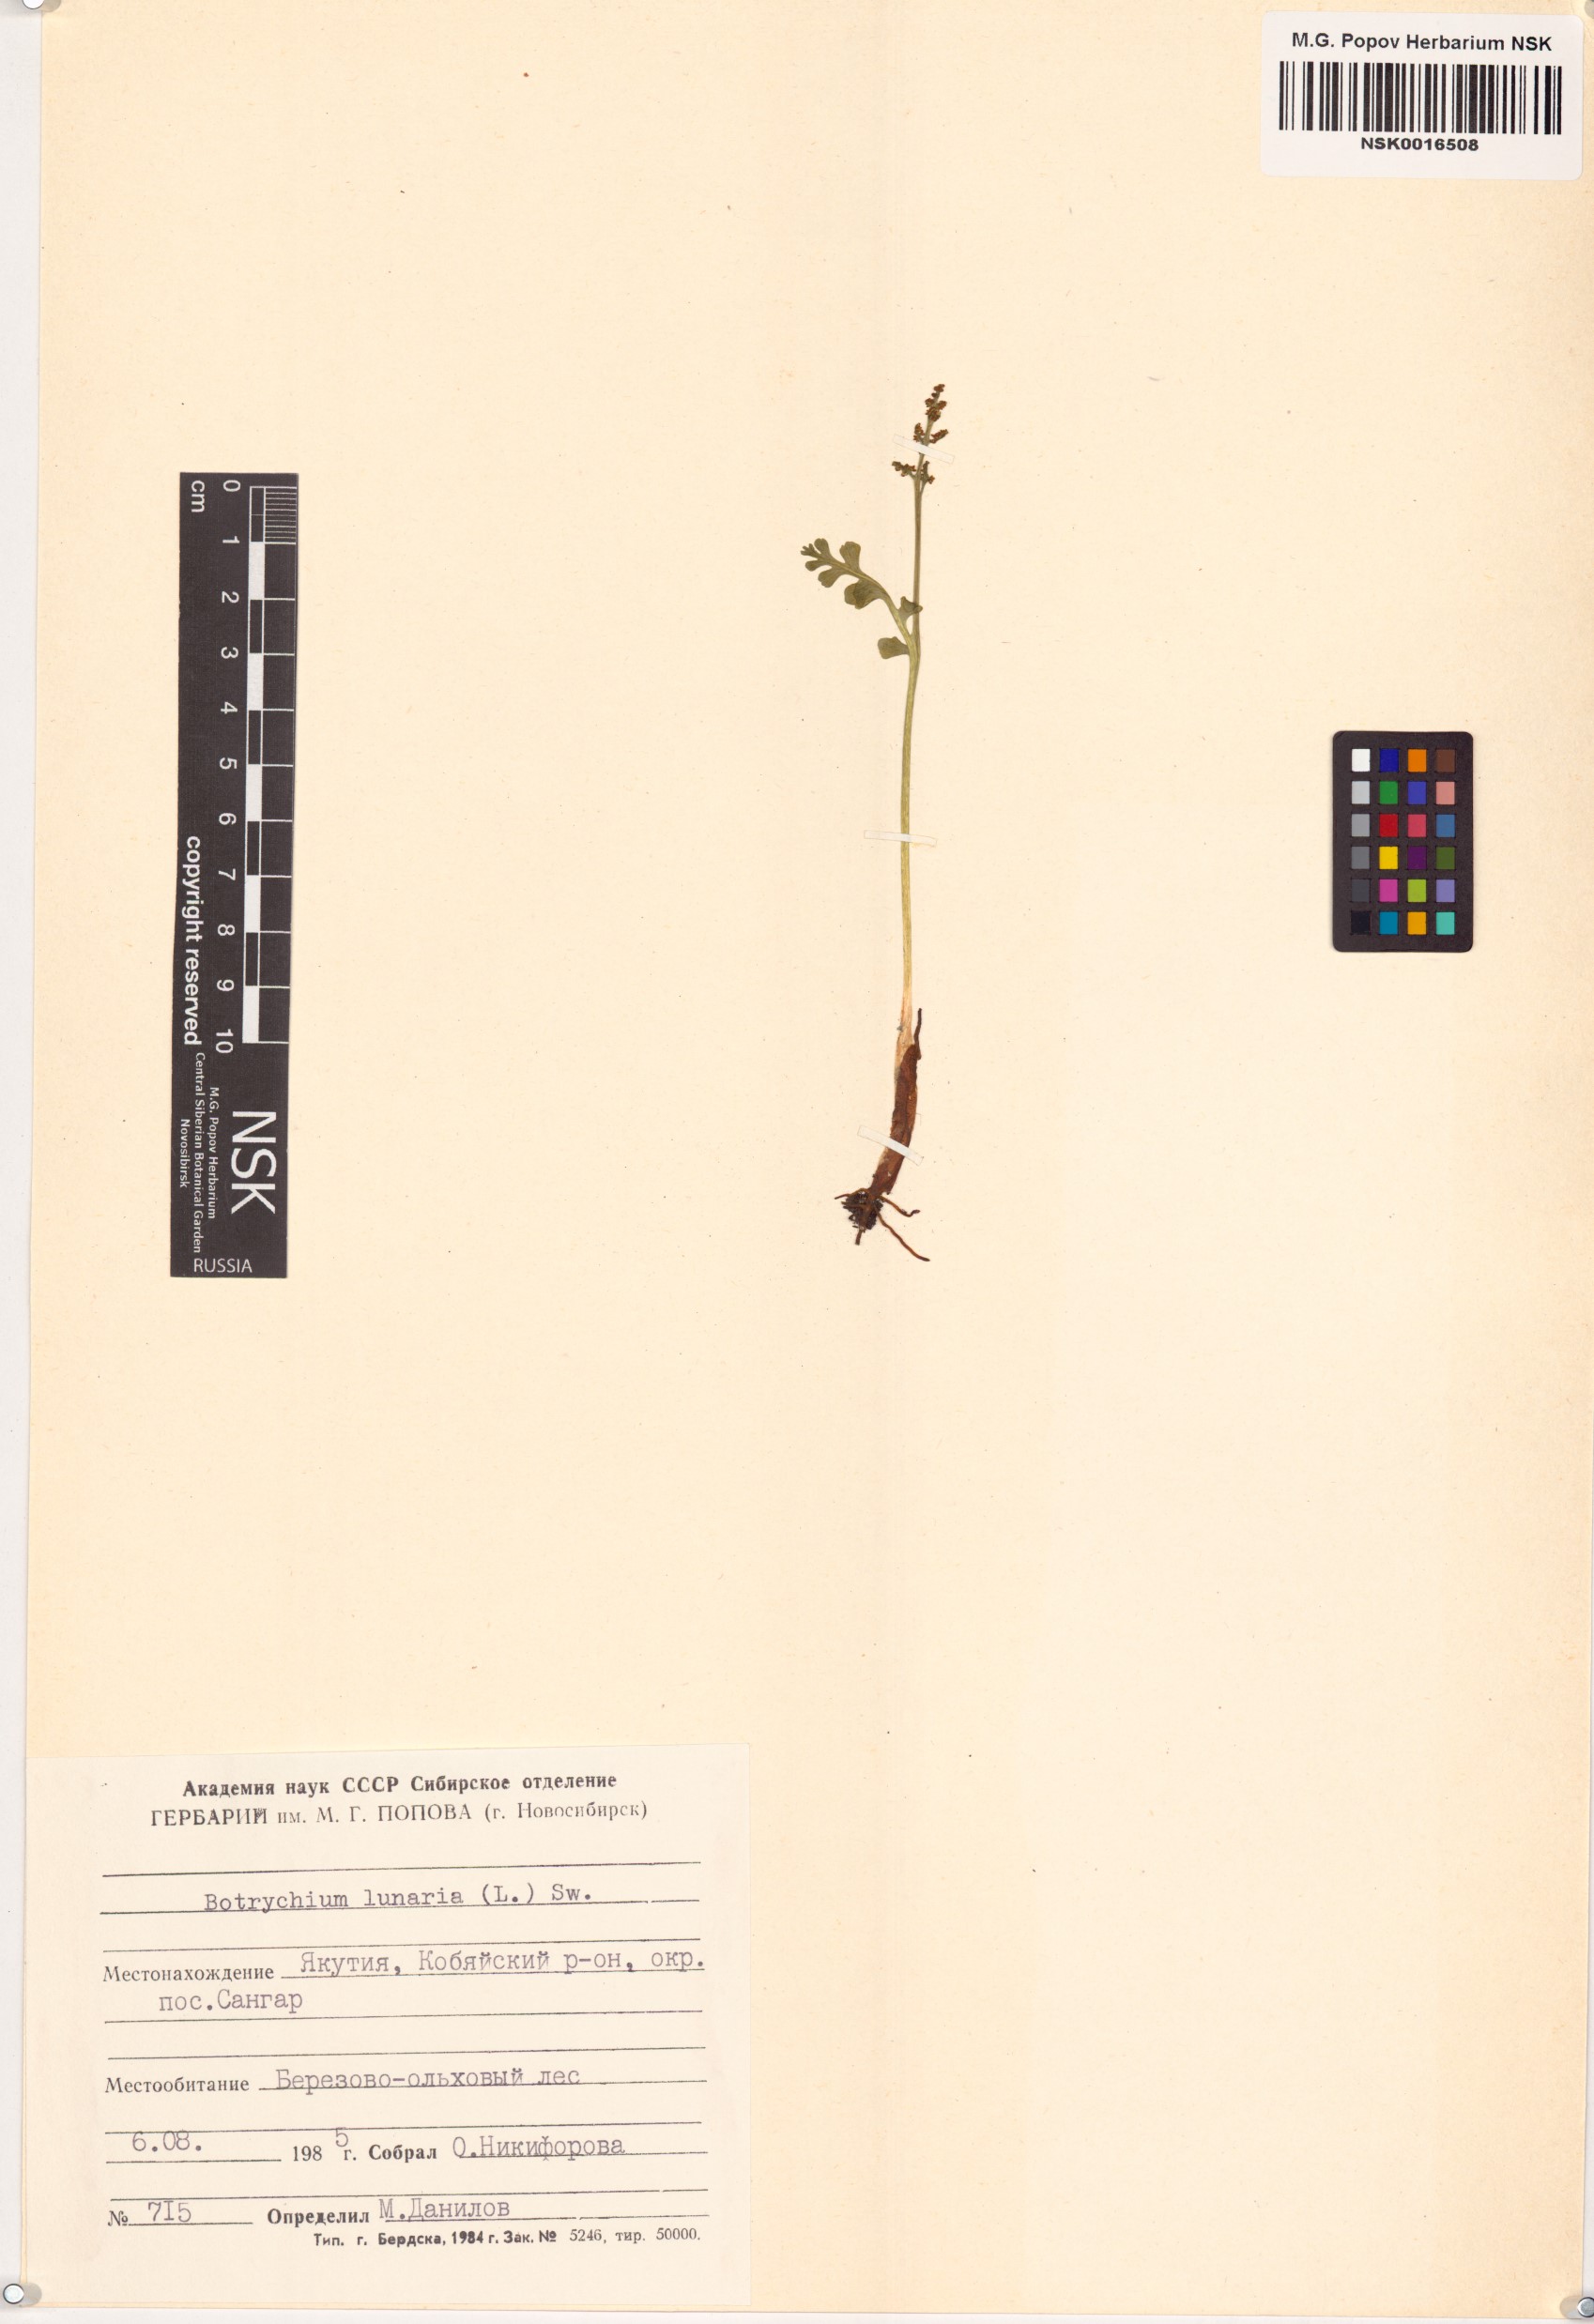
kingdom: Plantae
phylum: Tracheophyta
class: Polypodiopsida
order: Ophioglossales
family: Ophioglossaceae
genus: Botrychium
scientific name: Botrychium lunaria
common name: Moonwort
